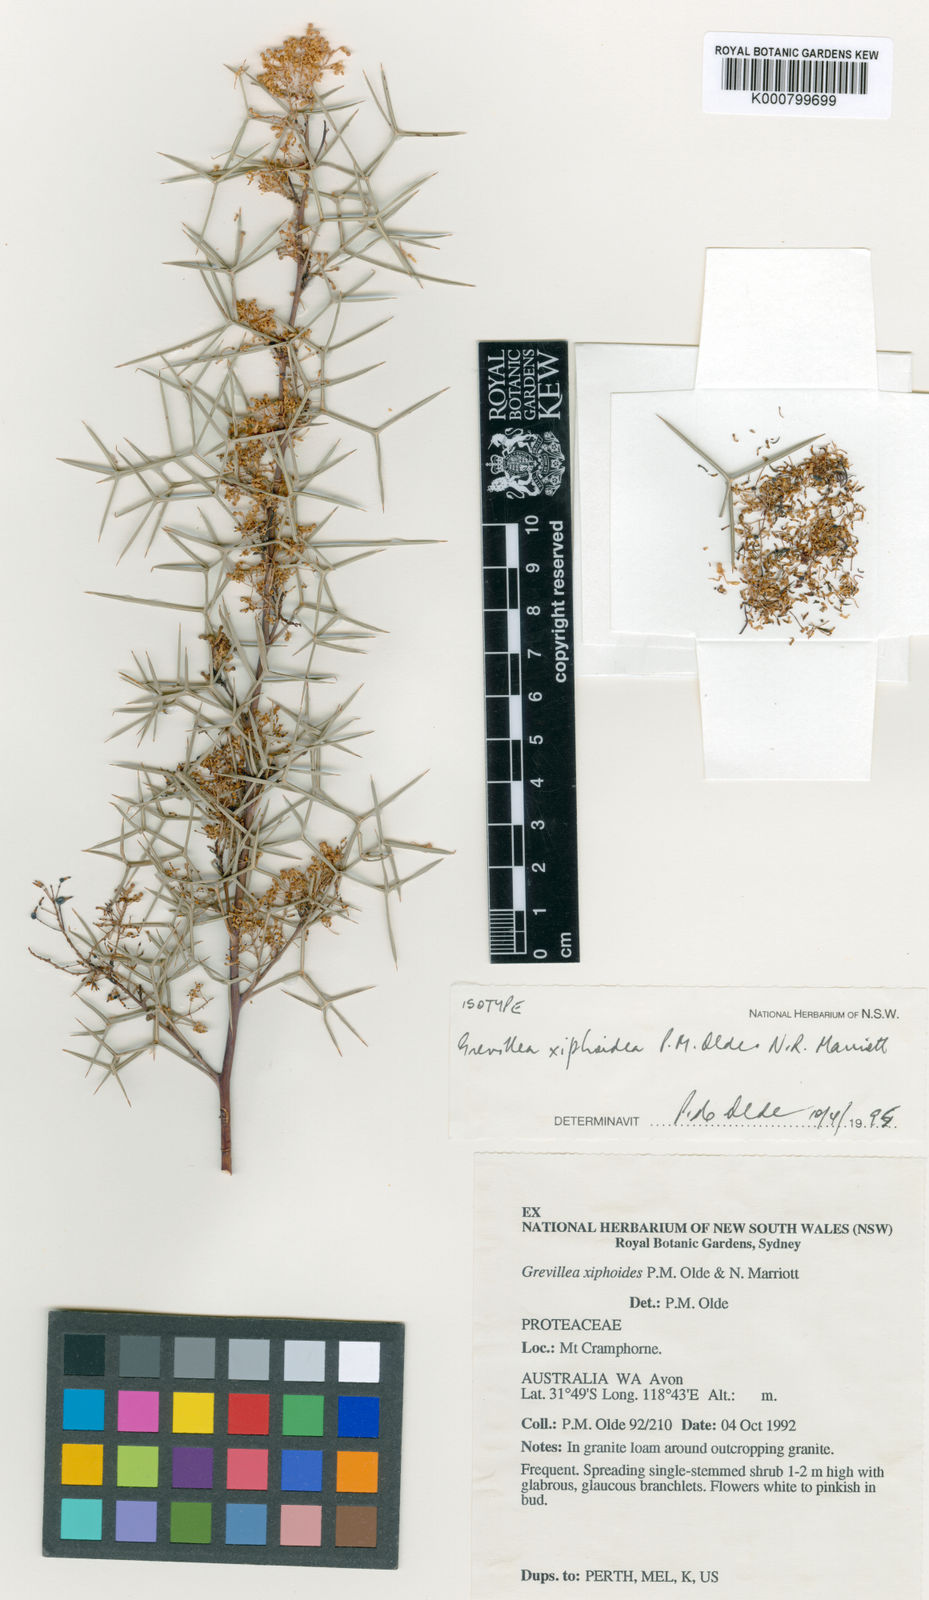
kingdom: Plantae
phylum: Tracheophyta
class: Magnoliopsida
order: Proteales
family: Proteaceae
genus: Grevillea
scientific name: Grevillea xiphoidea
